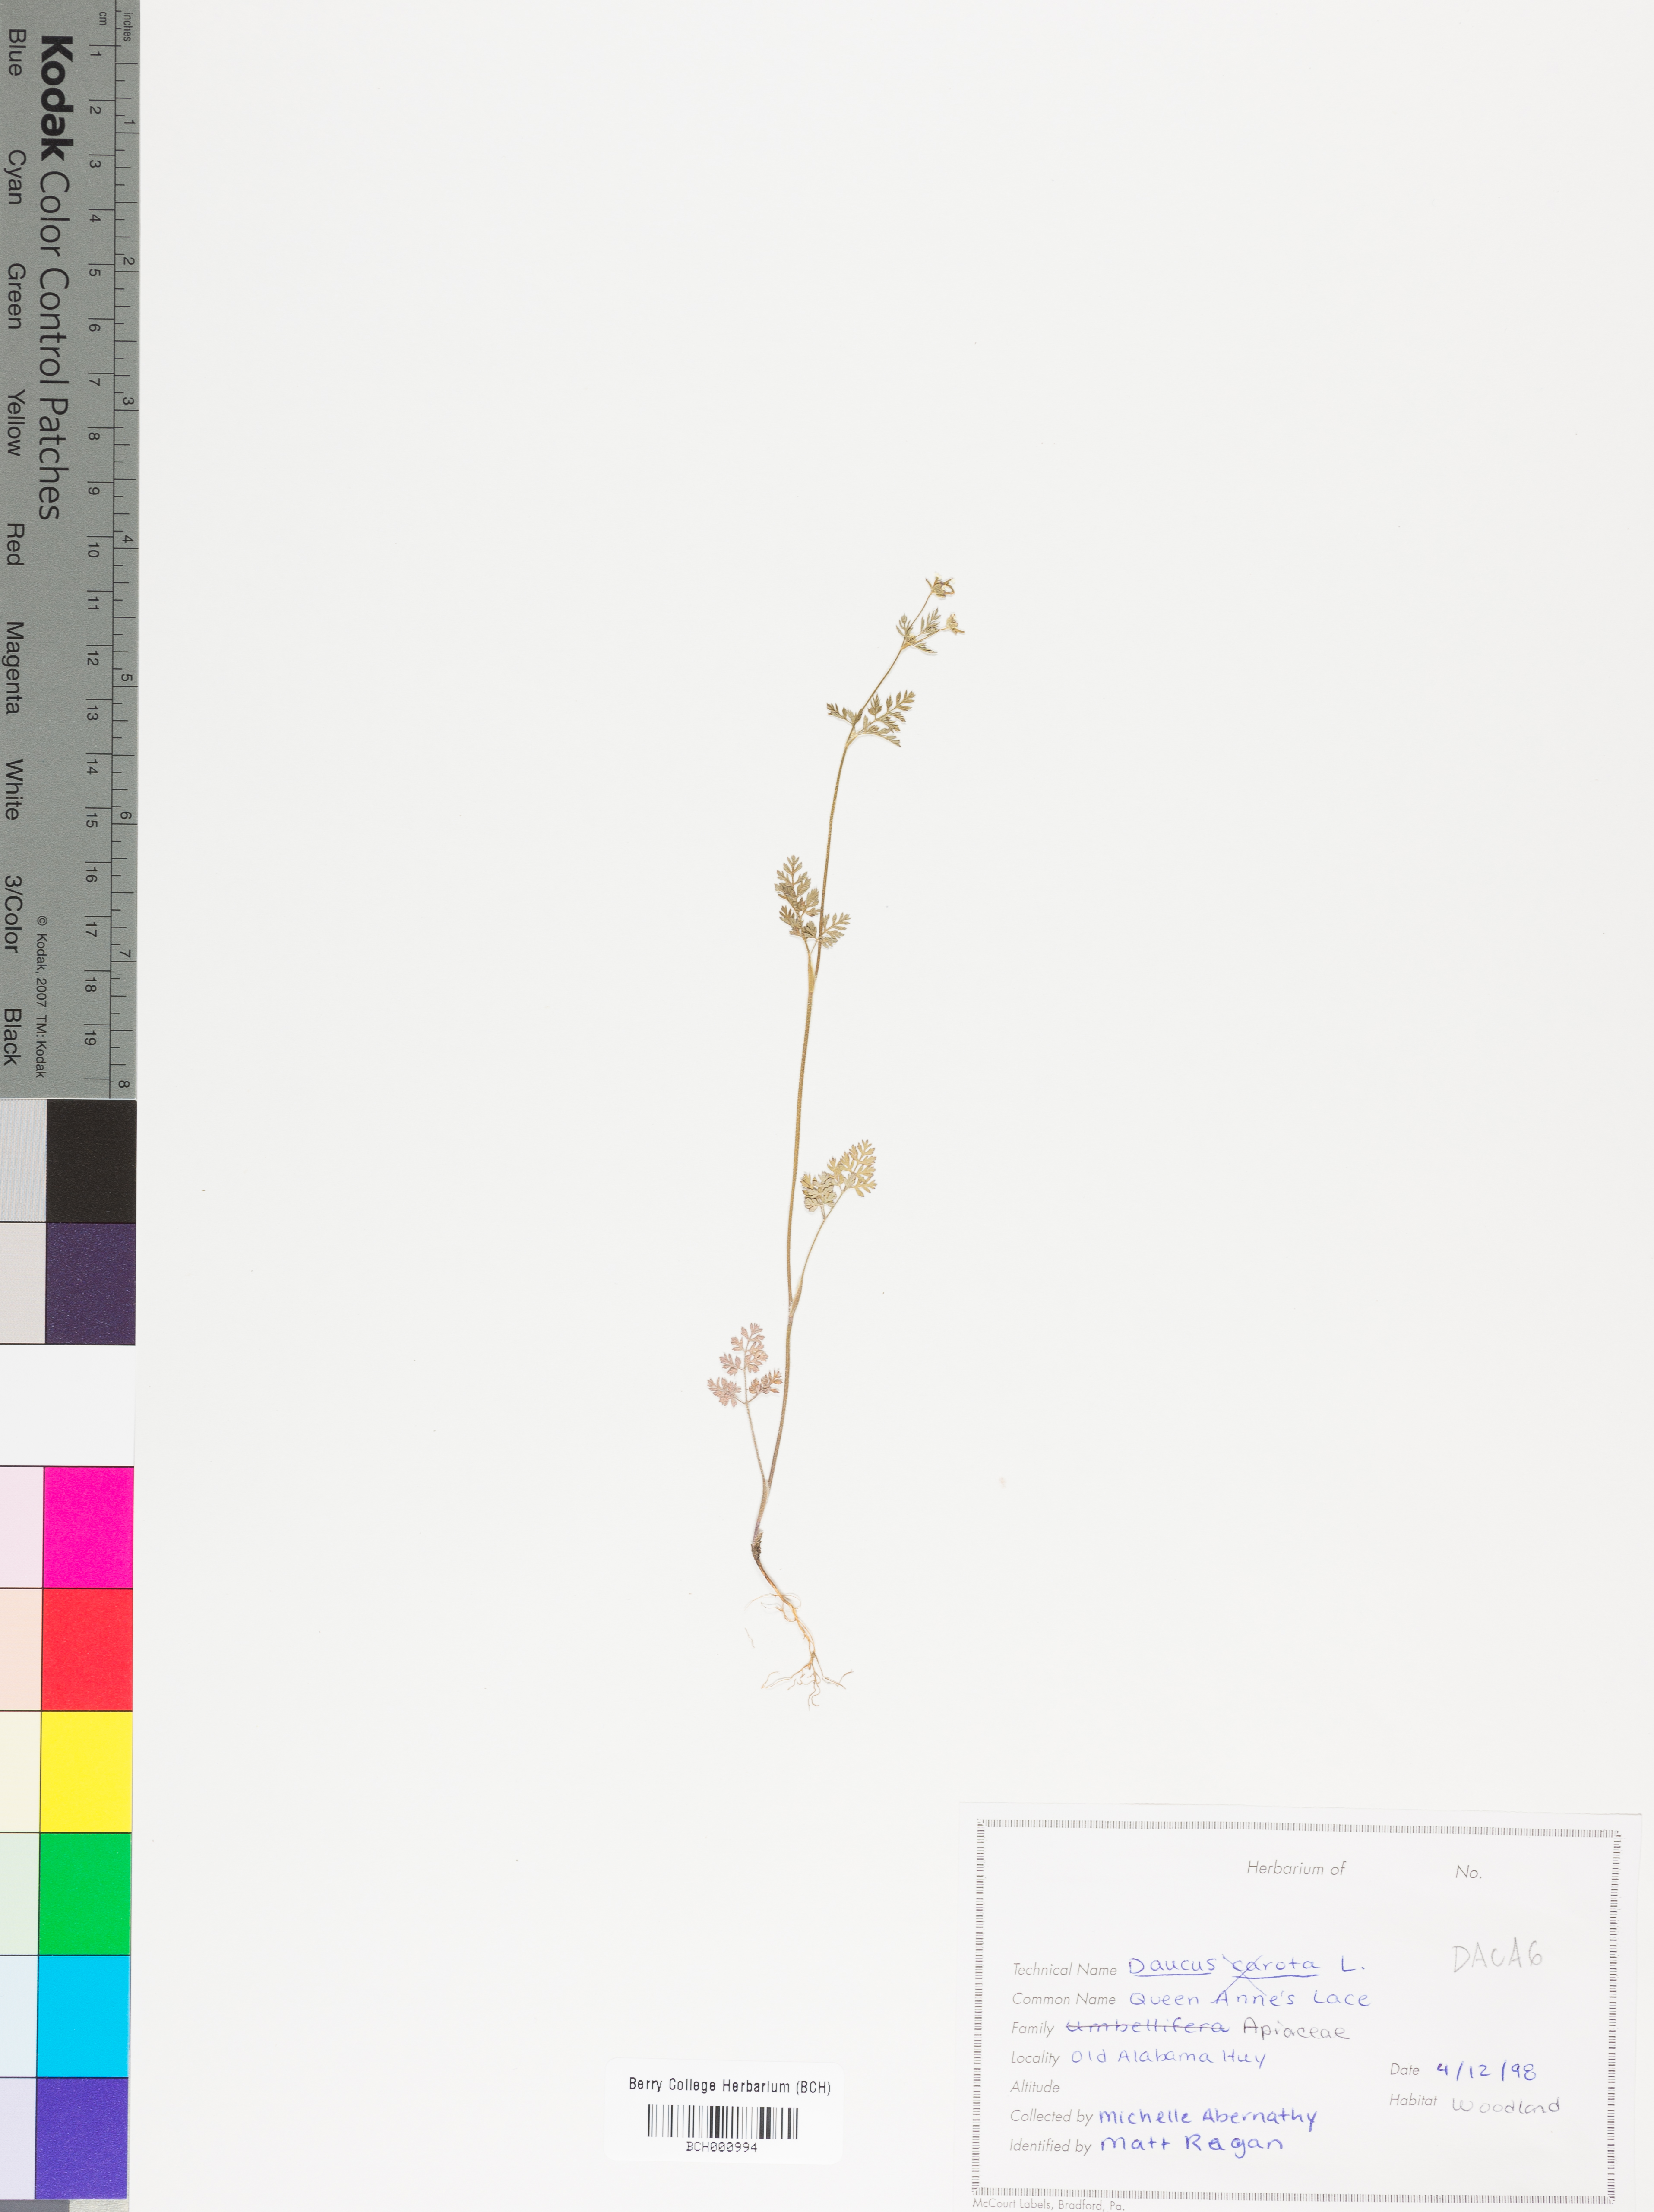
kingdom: Plantae
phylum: Tracheophyta
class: Magnoliopsida
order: Apiales
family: Apiaceae
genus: Daucus
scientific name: Daucus carota
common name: Wild carrot
